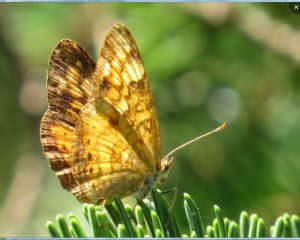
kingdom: Animalia
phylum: Arthropoda
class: Insecta
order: Lepidoptera
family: Nymphalidae
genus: Phyciodes
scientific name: Phyciodes tharos
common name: Northern Crescent
